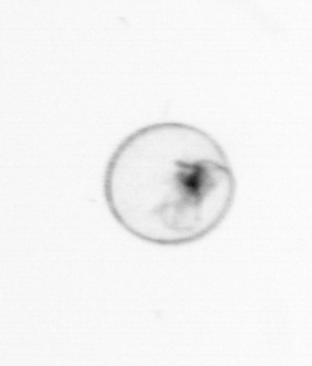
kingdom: Chromista
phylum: Myzozoa
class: Dinophyceae
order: Noctilucales
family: Noctilucaceae
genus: Noctiluca
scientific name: Noctiluca scintillans
